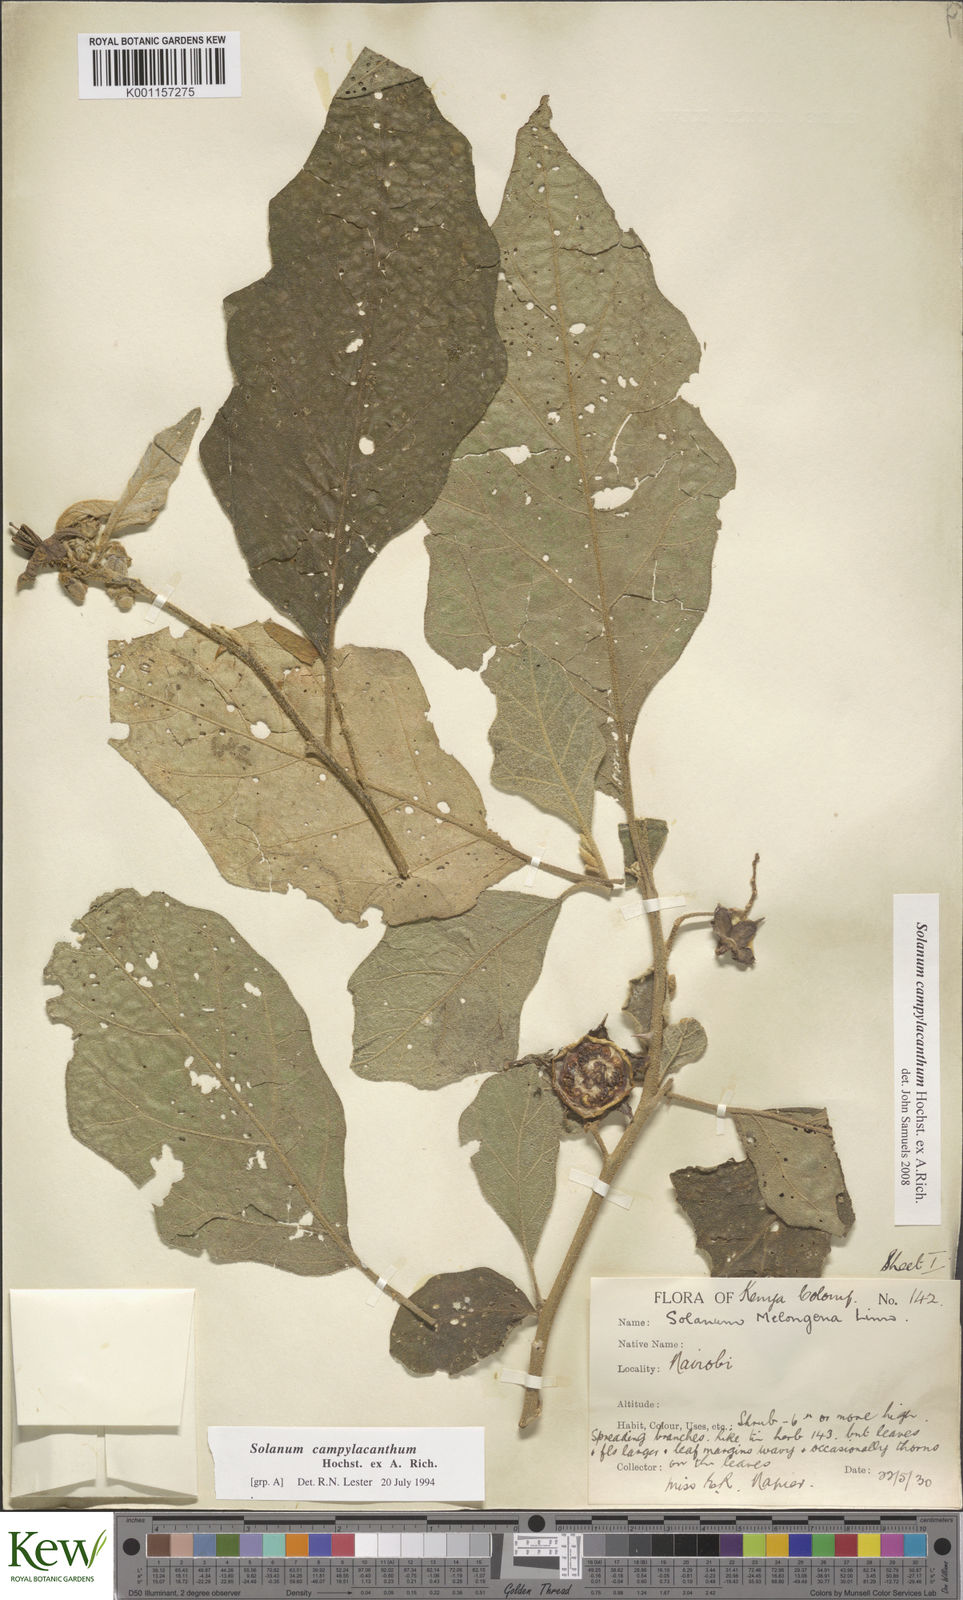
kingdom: Plantae
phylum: Tracheophyta
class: Magnoliopsida
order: Solanales
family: Solanaceae
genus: Solanum
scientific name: Solanum campylacanthum
